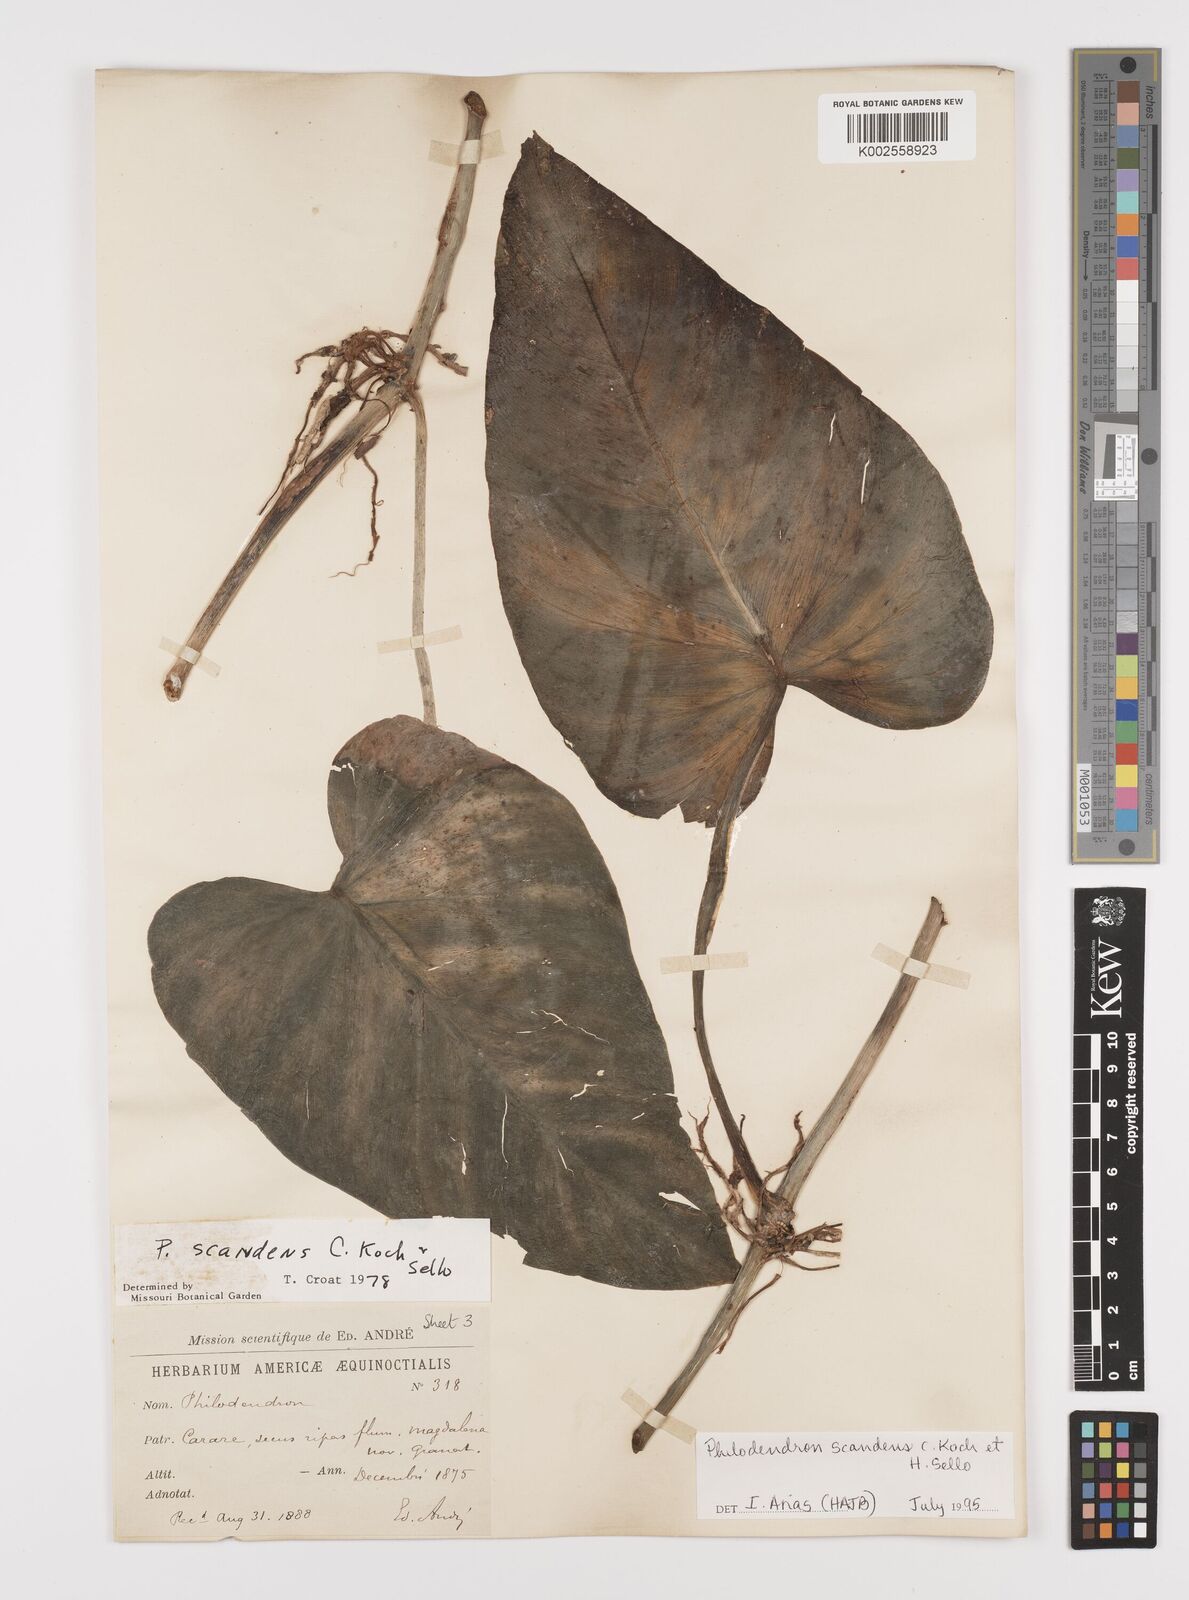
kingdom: Plantae
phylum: Tracheophyta
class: Liliopsida
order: Alismatales
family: Araceae
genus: Philodendron
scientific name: Philodendron hederaceum
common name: Vilevine
